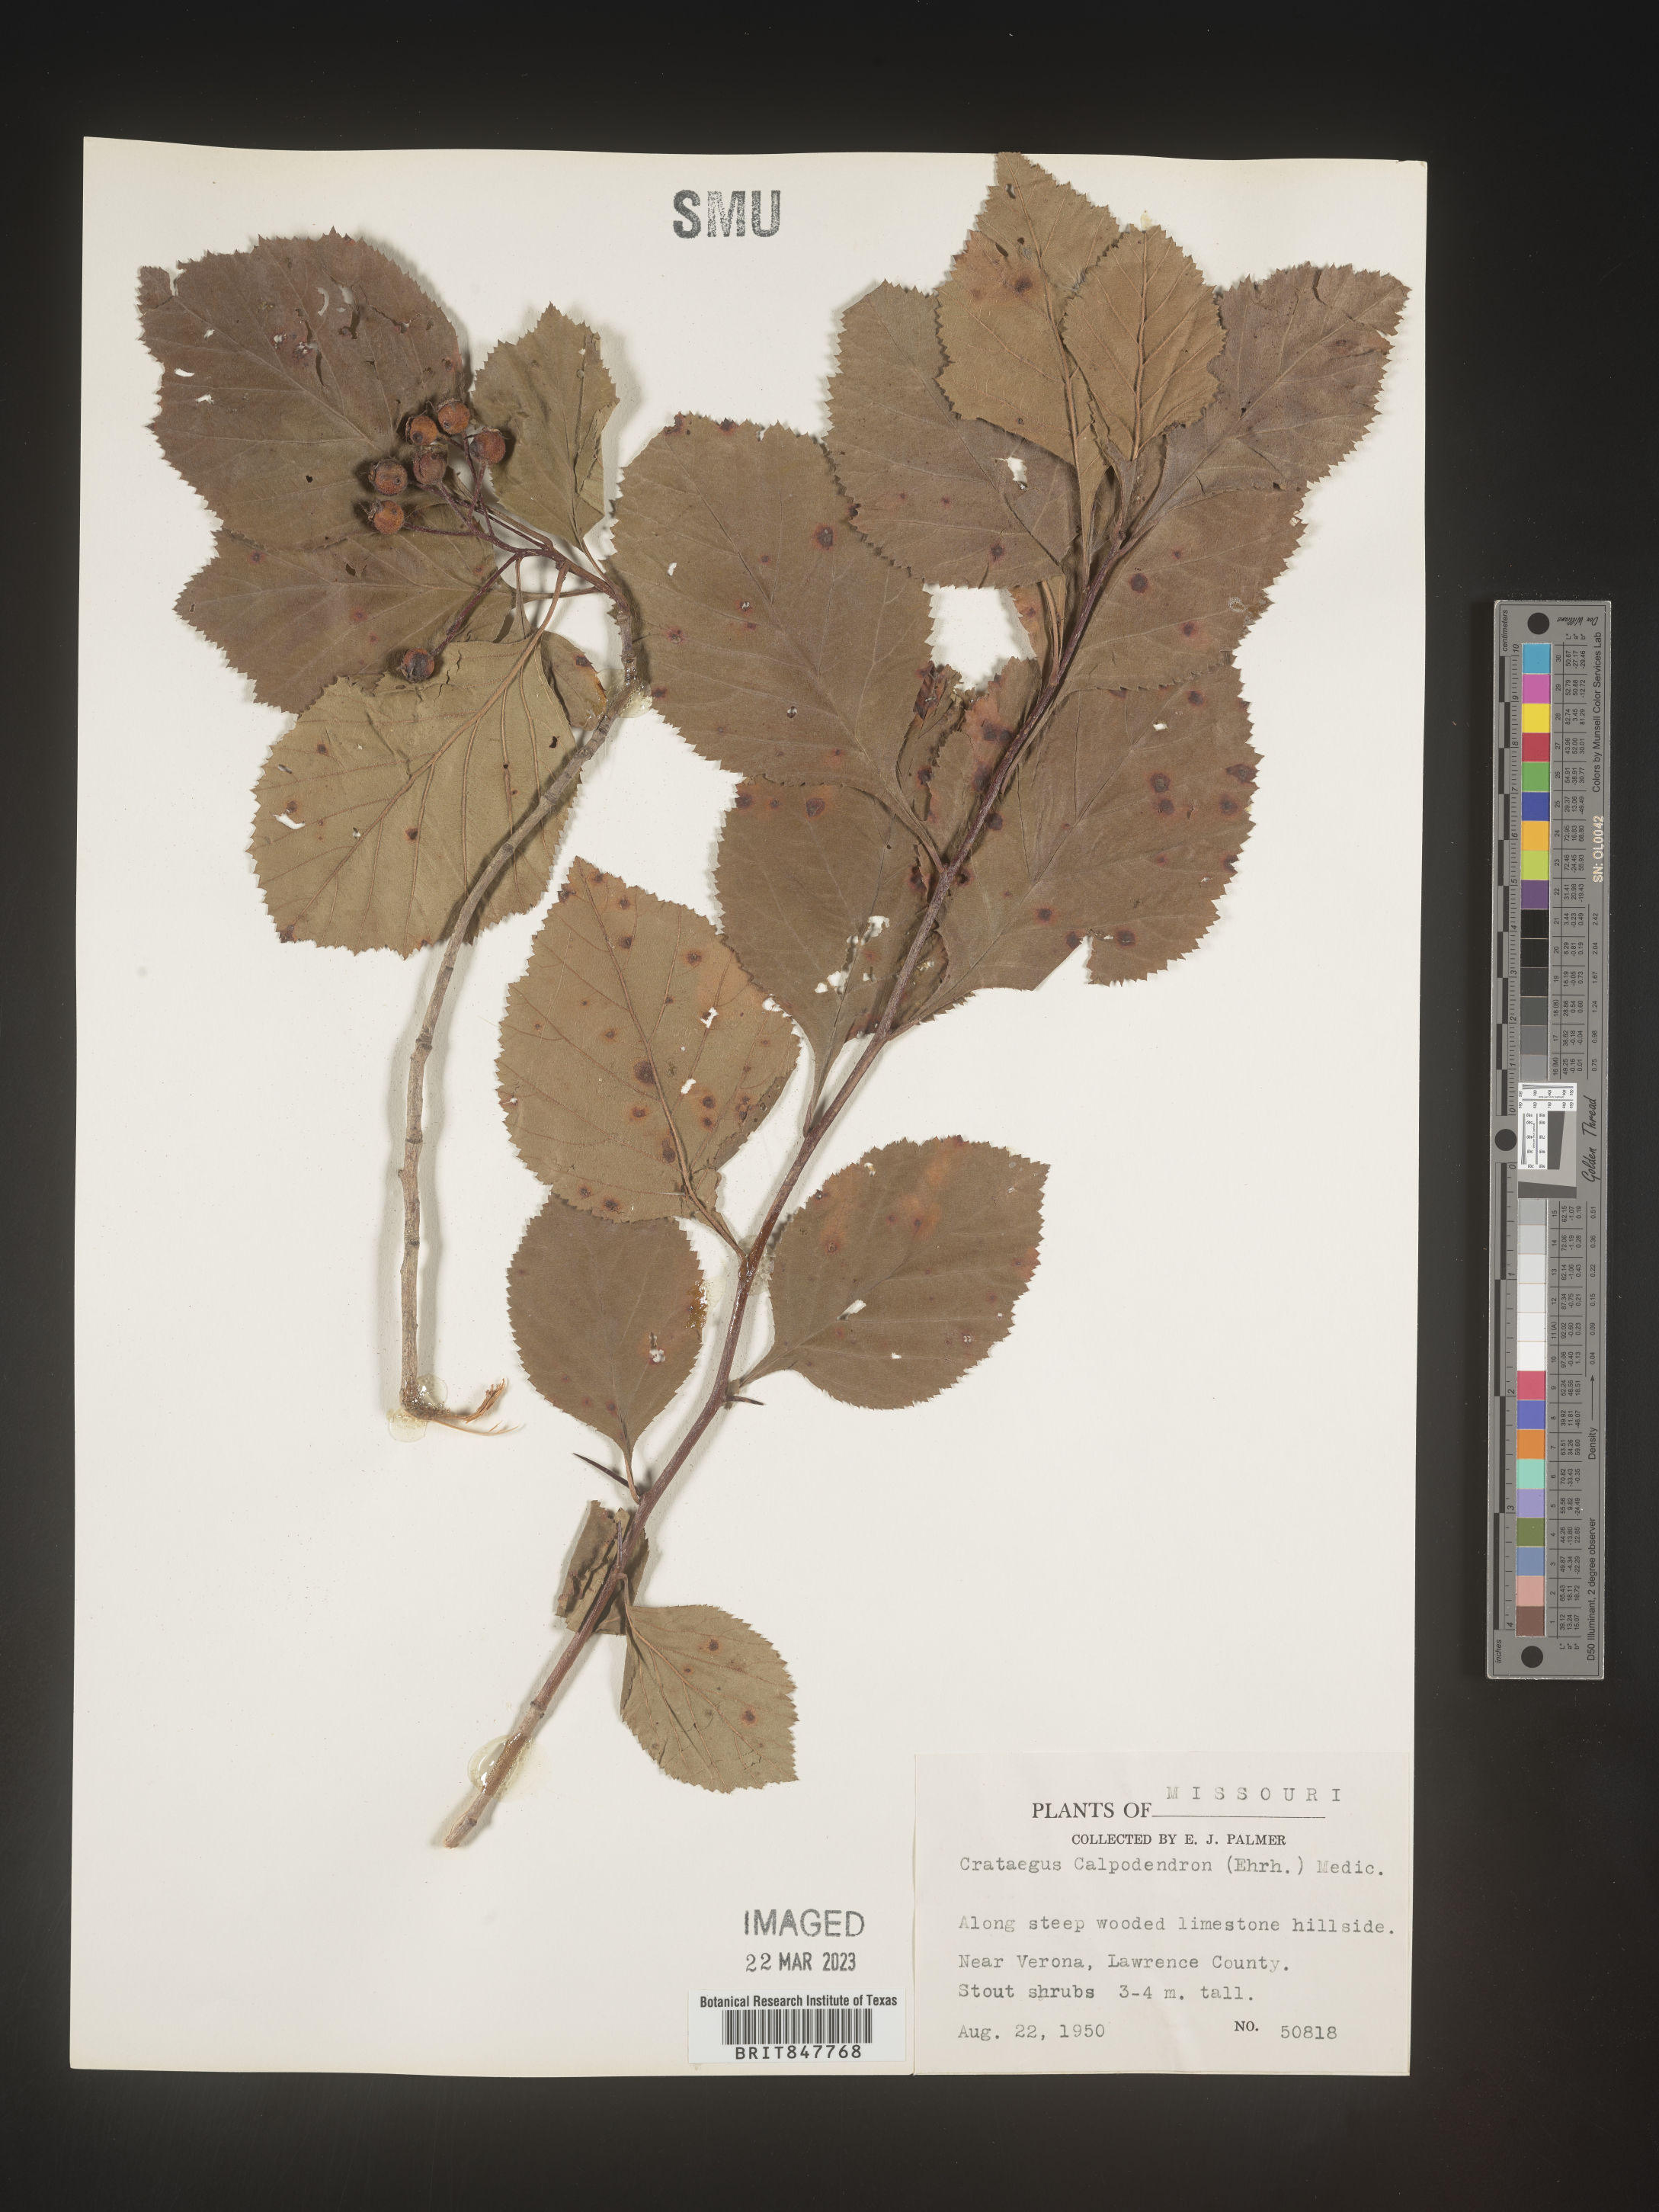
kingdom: Plantae
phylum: Tracheophyta
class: Magnoliopsida
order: Rosales
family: Rosaceae
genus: Crataegus
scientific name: Crataegus calpodendron
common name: Pear hawthorn
